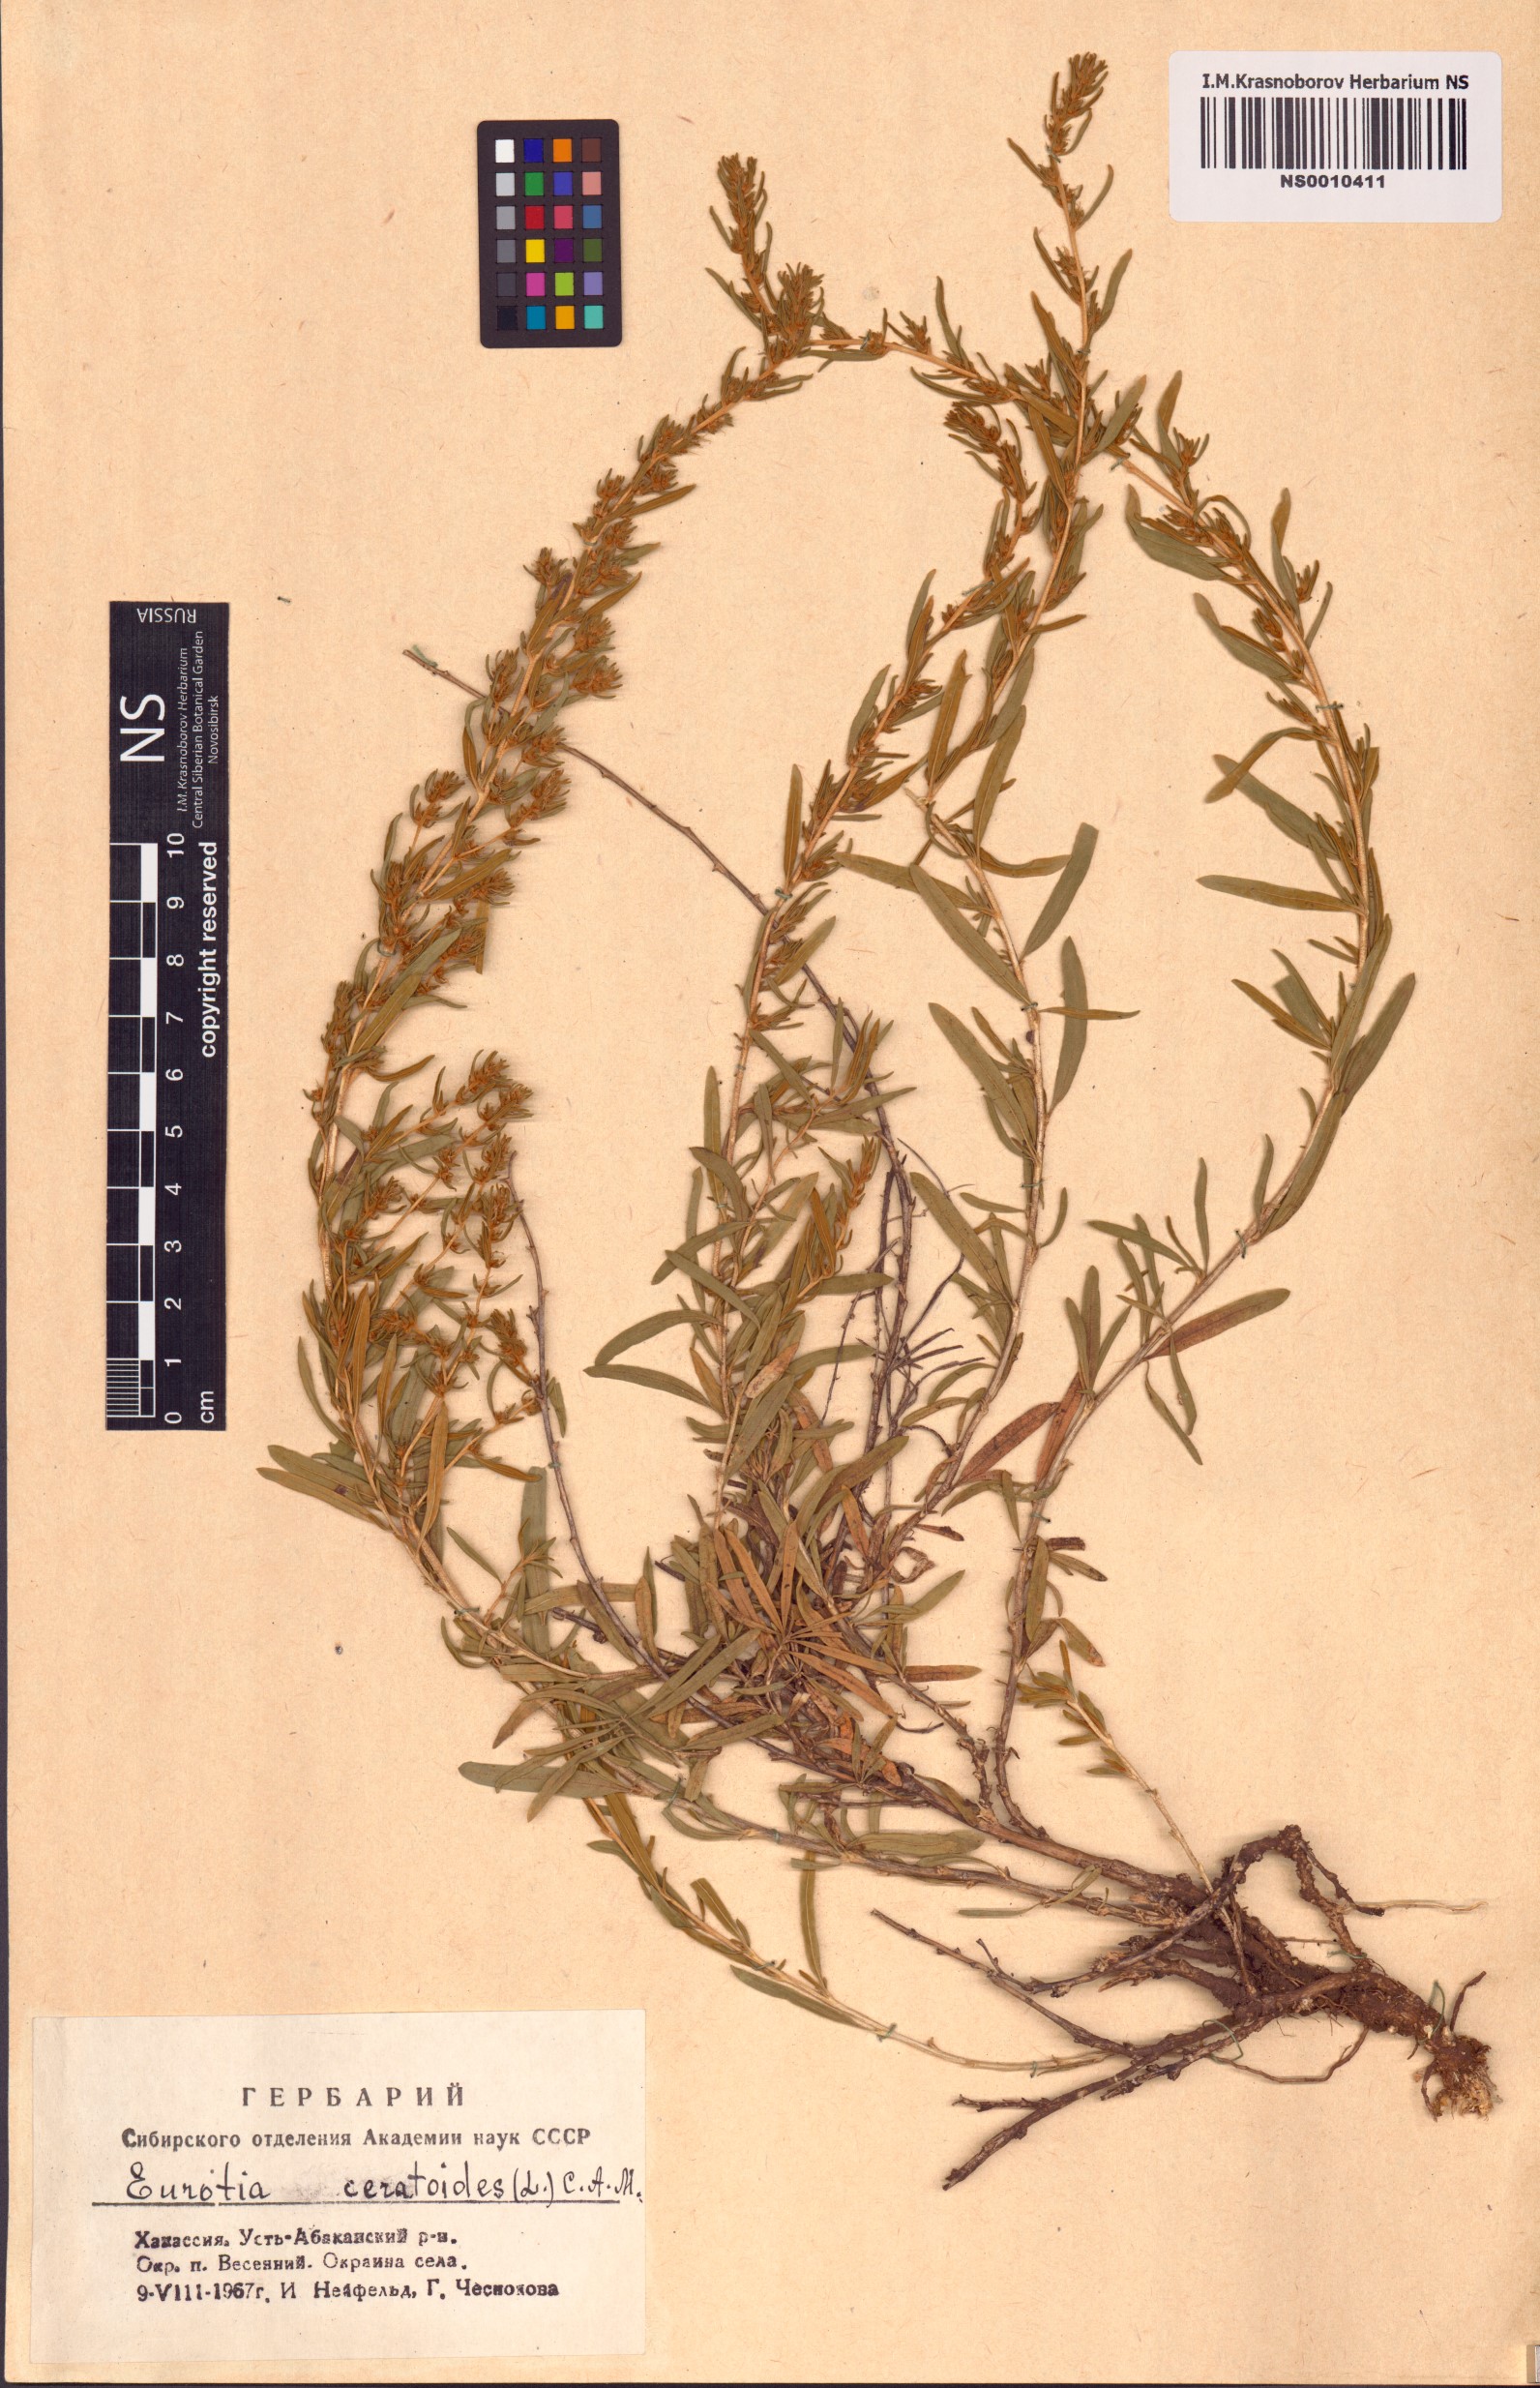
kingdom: Plantae
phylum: Tracheophyta
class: Magnoliopsida
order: Caryophyllales
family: Amaranthaceae
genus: Krascheninnikovia
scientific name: Krascheninnikovia ceratoides
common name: Pamirian winterfat
